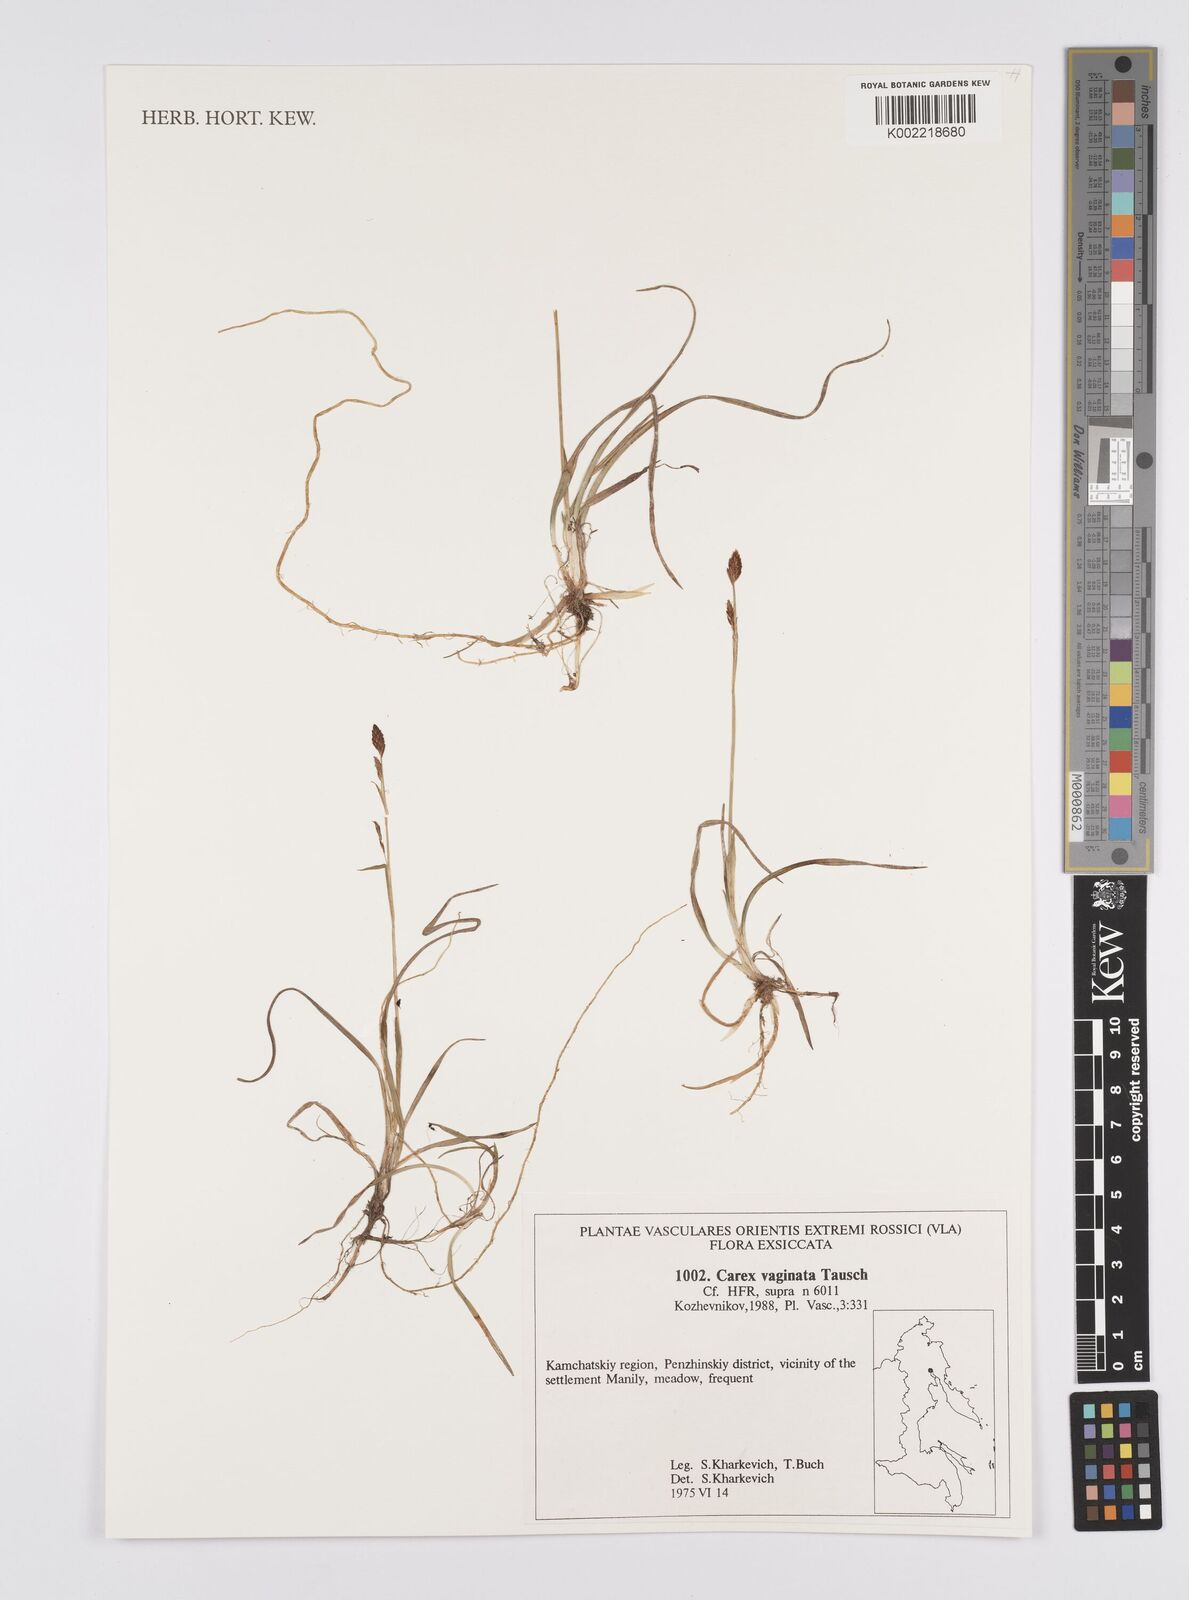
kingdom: Plantae
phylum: Tracheophyta
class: Liliopsida
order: Poales
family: Cyperaceae
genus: Carex
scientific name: Carex vaginata
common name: Sheathed sedge
